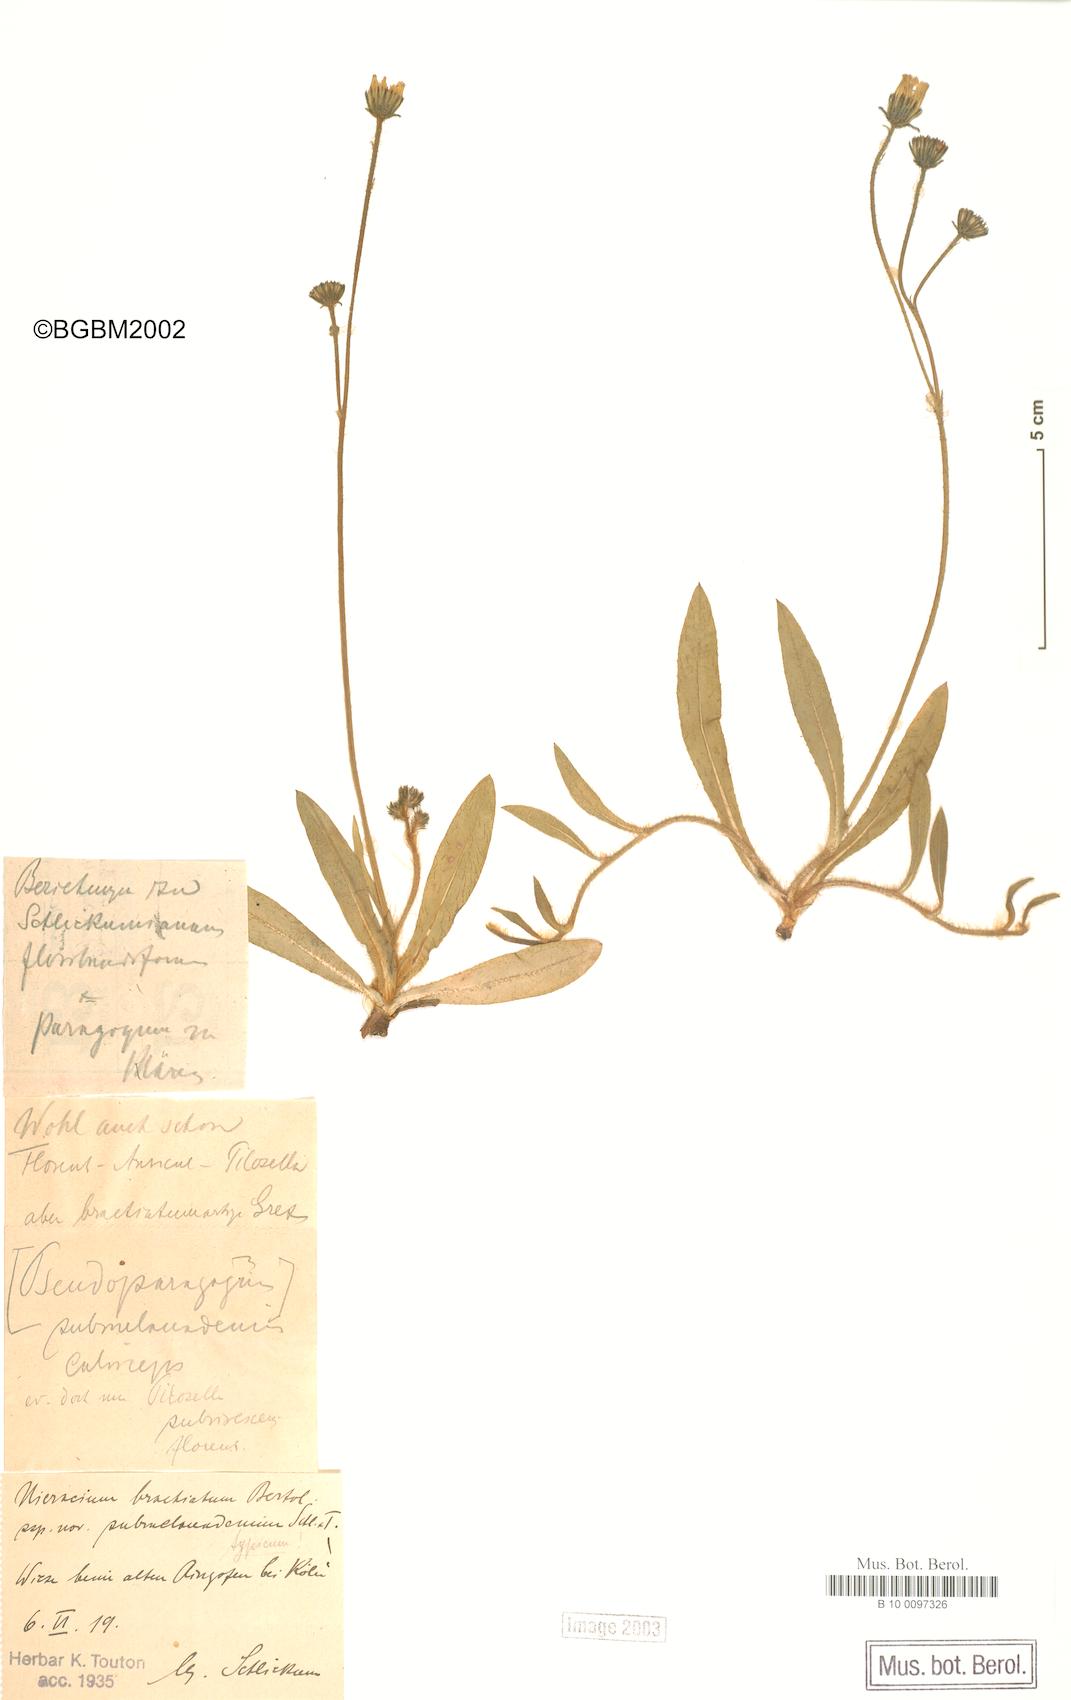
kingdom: Plantae
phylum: Tracheophyta
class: Magnoliopsida
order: Asterales
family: Asteraceae
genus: Pilosella
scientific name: Pilosella acutifolia
